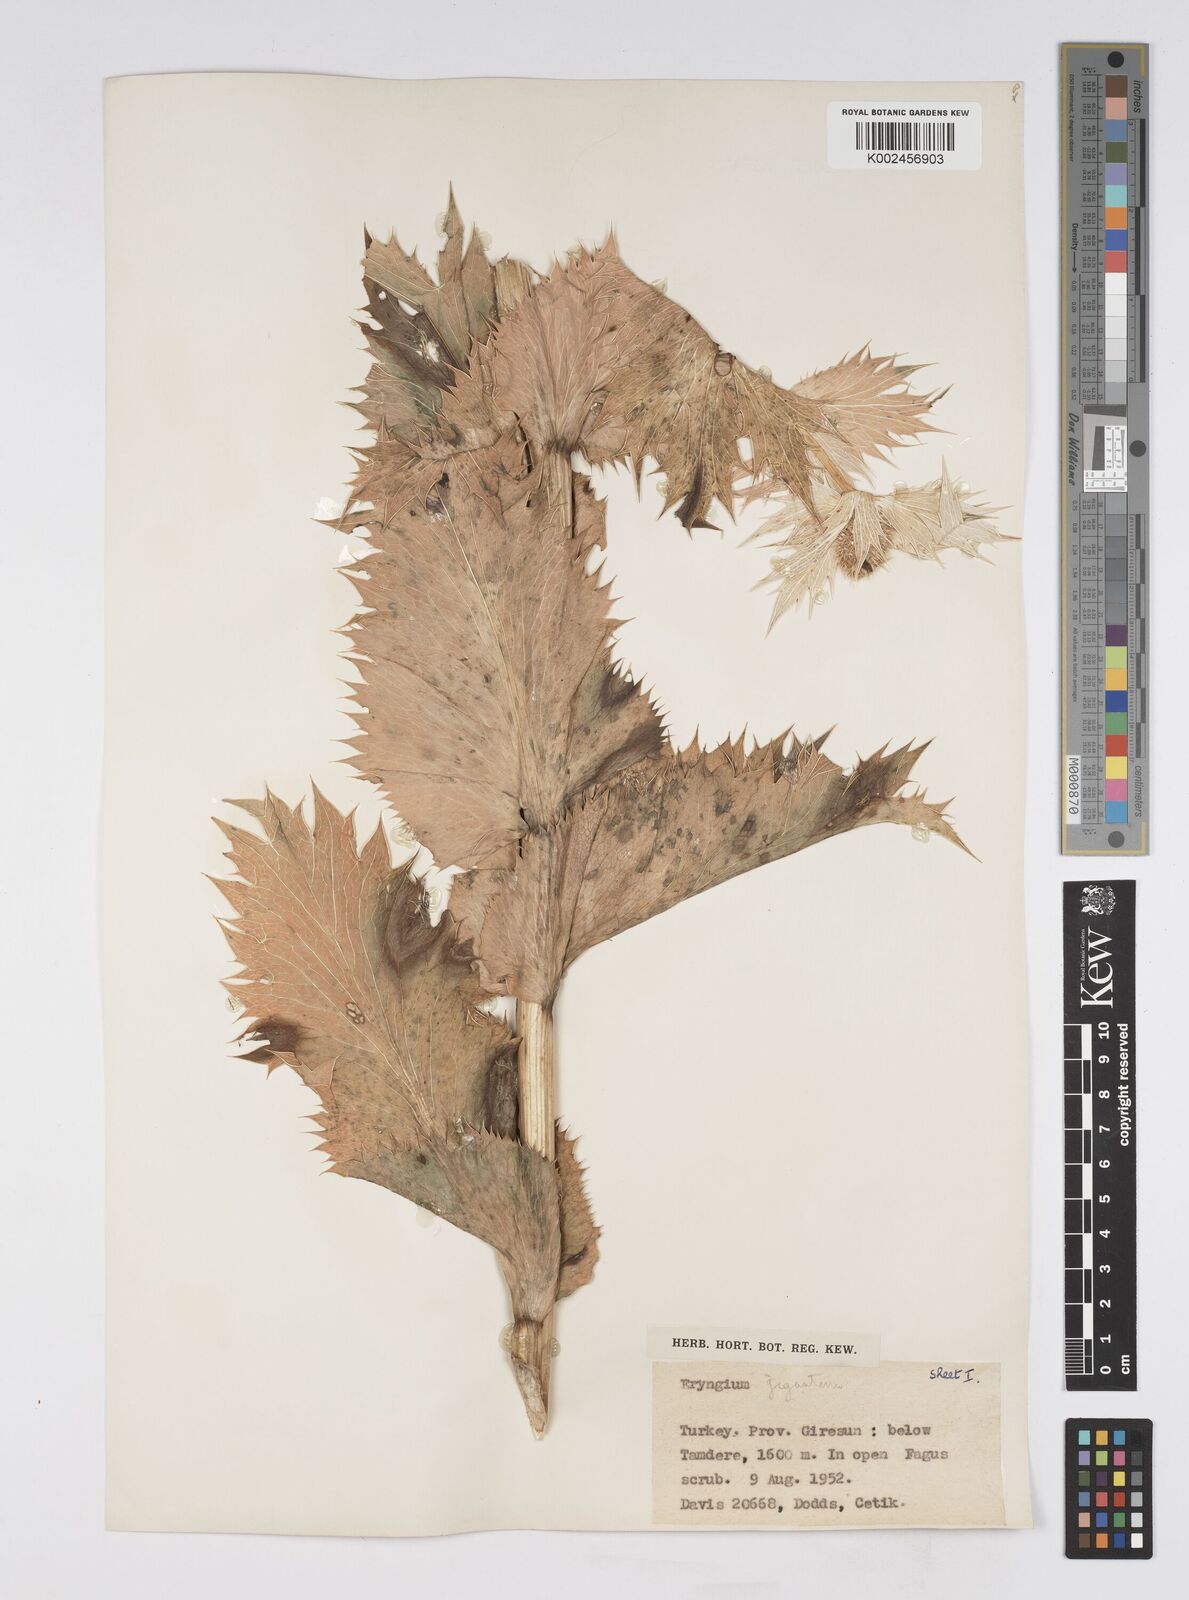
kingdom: Plantae
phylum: Tracheophyta
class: Magnoliopsida
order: Apiales
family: Apiaceae
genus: Eryngium
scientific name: Eryngium giganteum
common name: Tall eryngo
